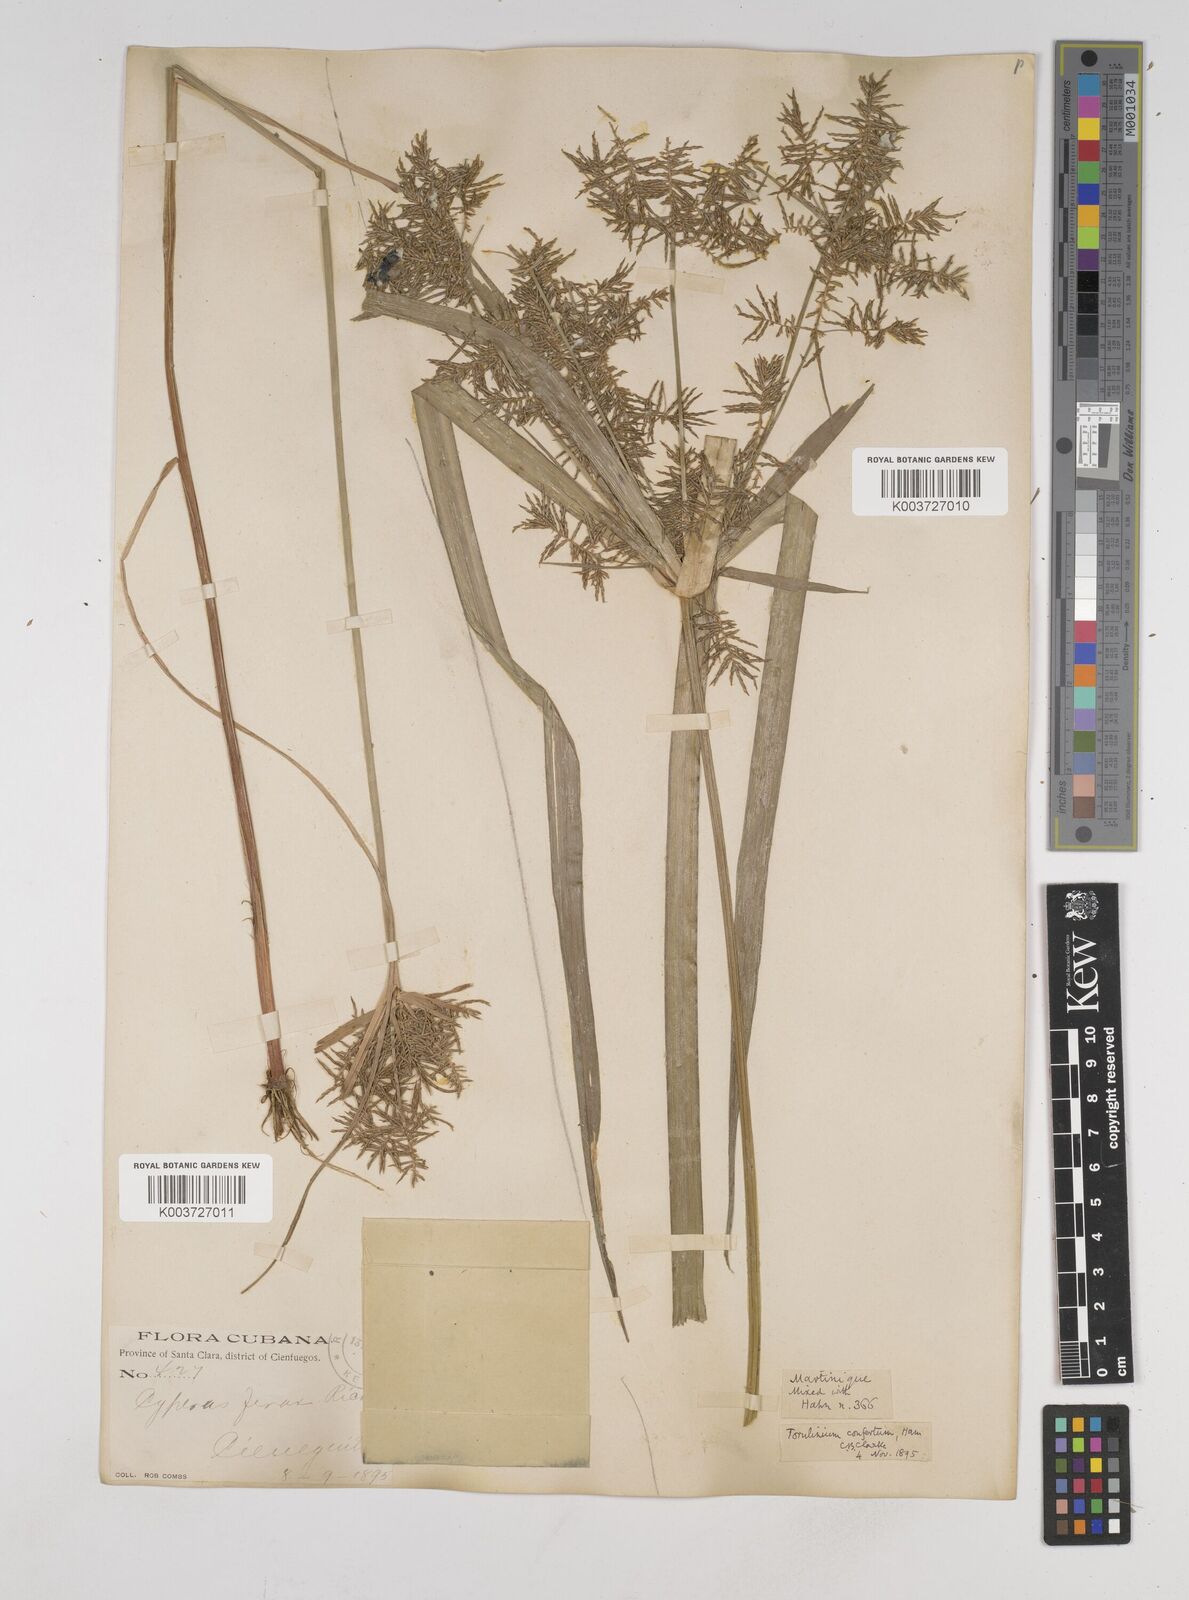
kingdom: Plantae
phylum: Tracheophyta
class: Liliopsida
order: Poales
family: Cyperaceae
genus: Cyperus
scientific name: Cyperus odoratus
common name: Fragrant flatsedge
